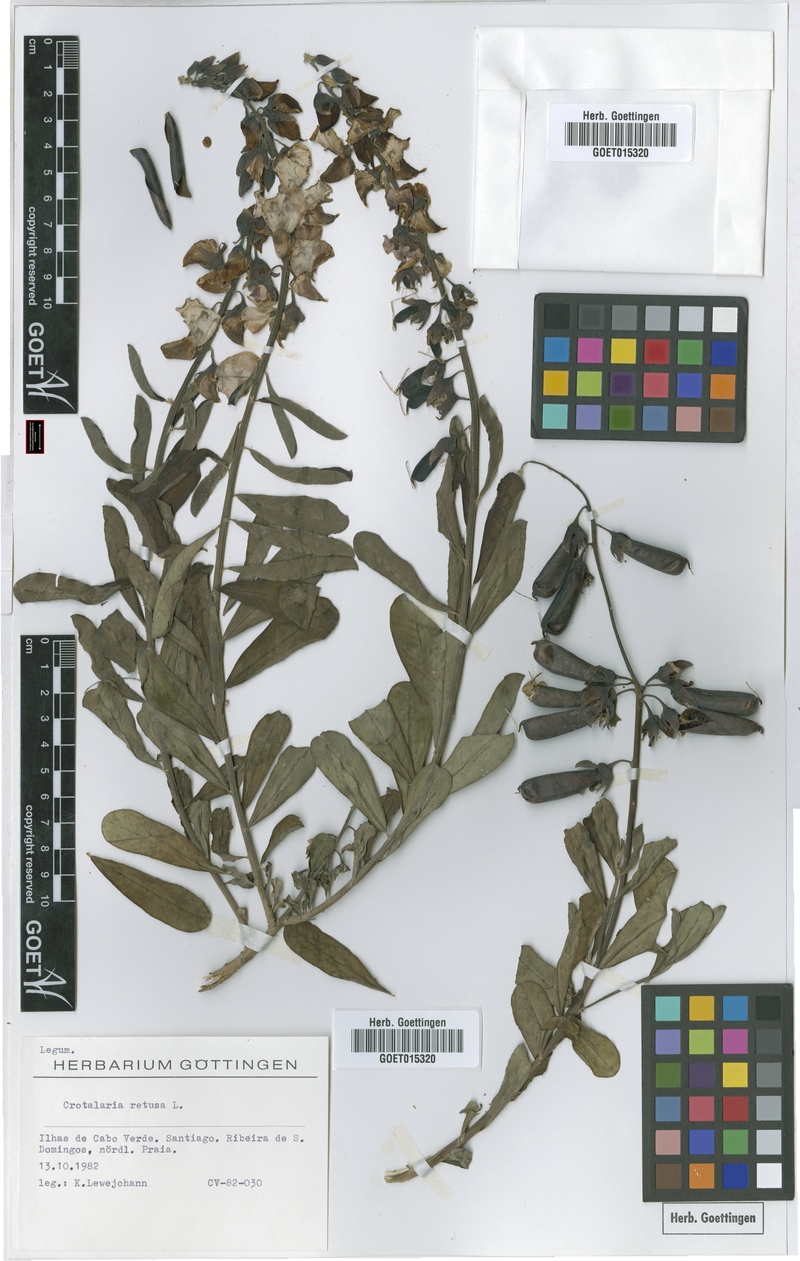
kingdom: Plantae
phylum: Tracheophyta
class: Magnoliopsida
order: Fabales
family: Fabaceae
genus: Crotalaria
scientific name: Crotalaria retusa
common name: Rattleweed
